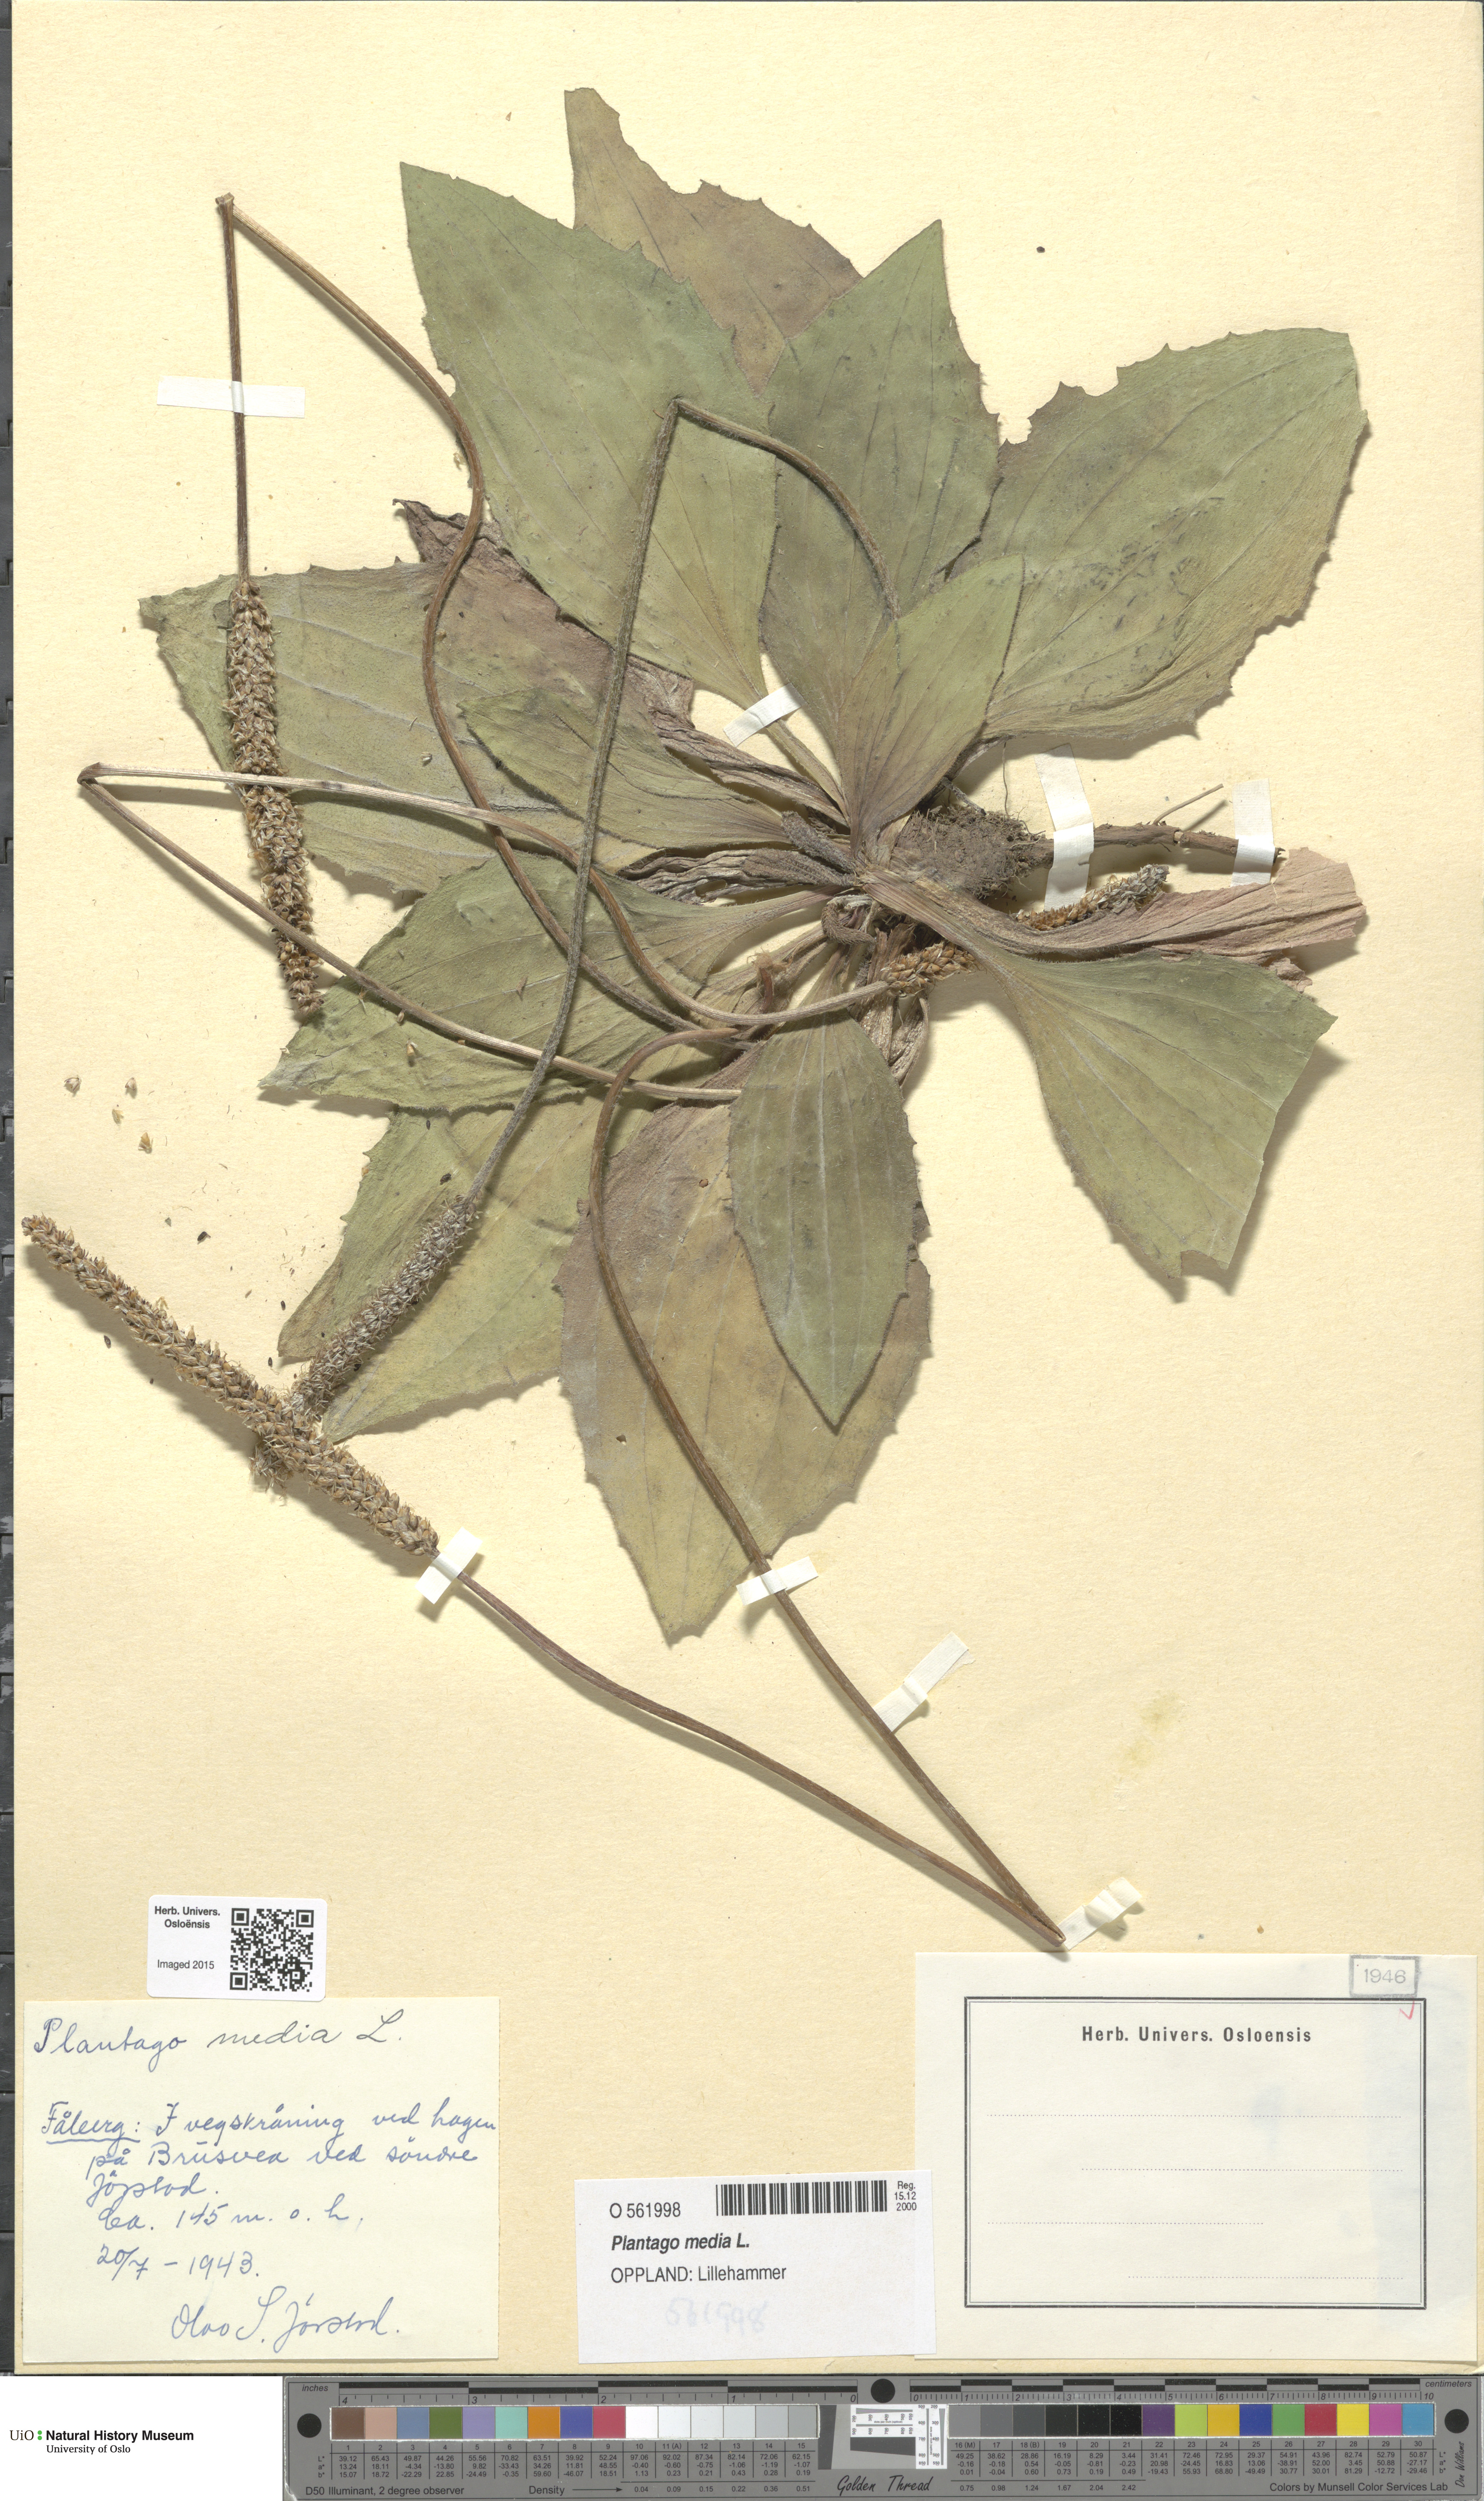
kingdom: Plantae
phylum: Tracheophyta
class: Magnoliopsida
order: Lamiales
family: Plantaginaceae
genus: Plantago
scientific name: Plantago media
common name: Hoary plantain
